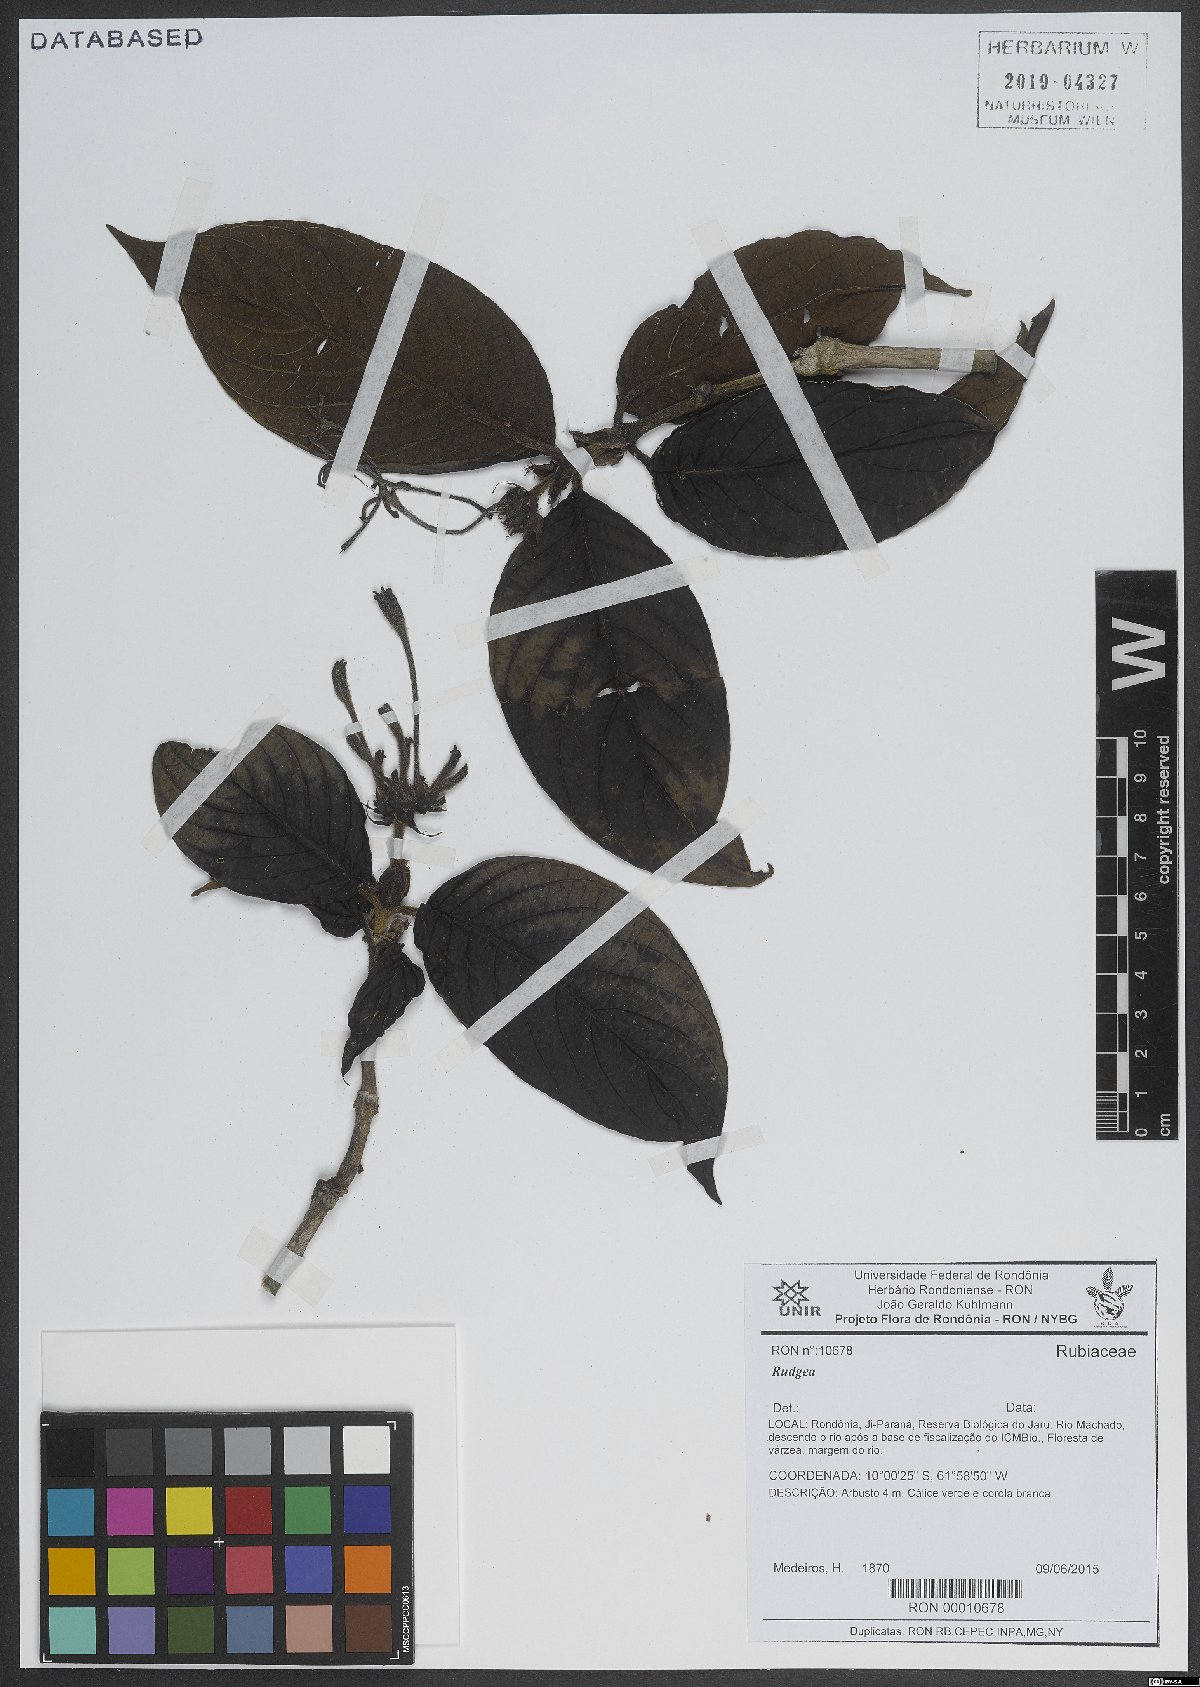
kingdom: Plantae
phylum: Tracheophyta
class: Magnoliopsida
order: Gentianales
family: Rubiaceae
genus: Rudgea
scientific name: Rudgea
